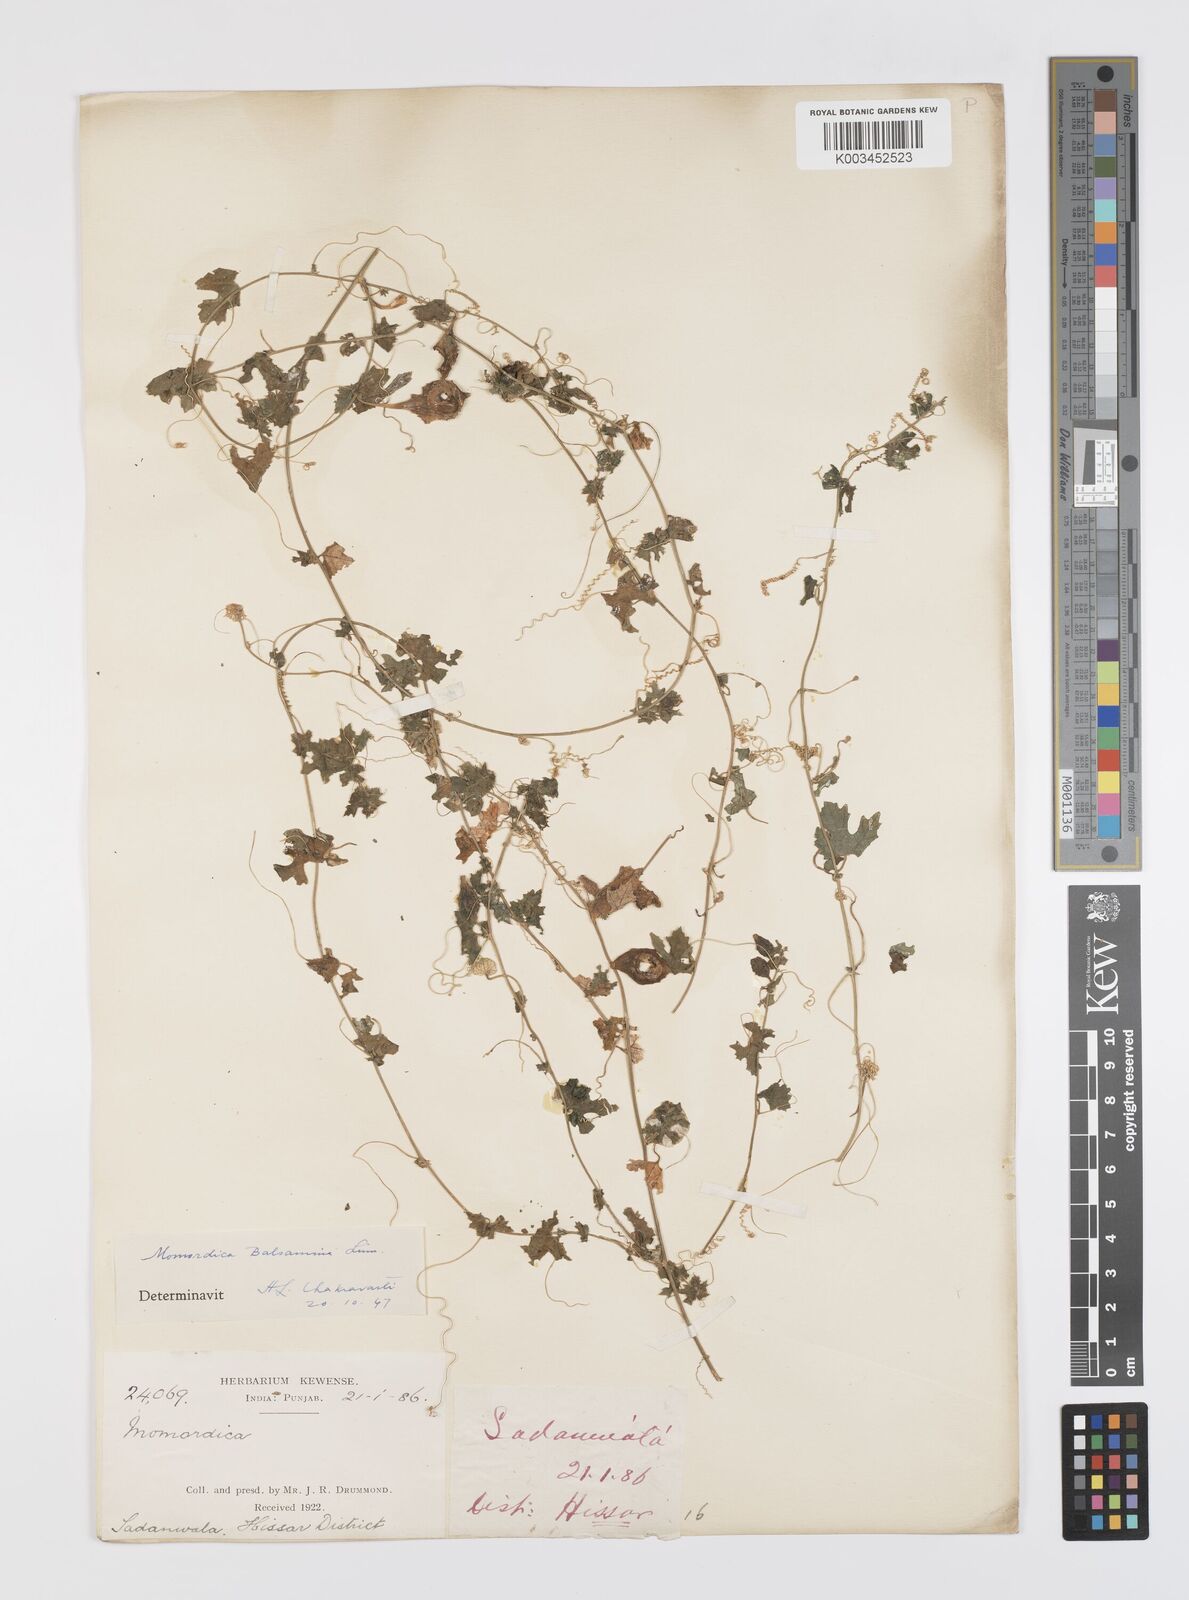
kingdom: Plantae
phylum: Tracheophyta
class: Magnoliopsida
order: Cucurbitales
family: Cucurbitaceae
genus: Momordica
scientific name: Momordica balsamina
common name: Southern balsampear
